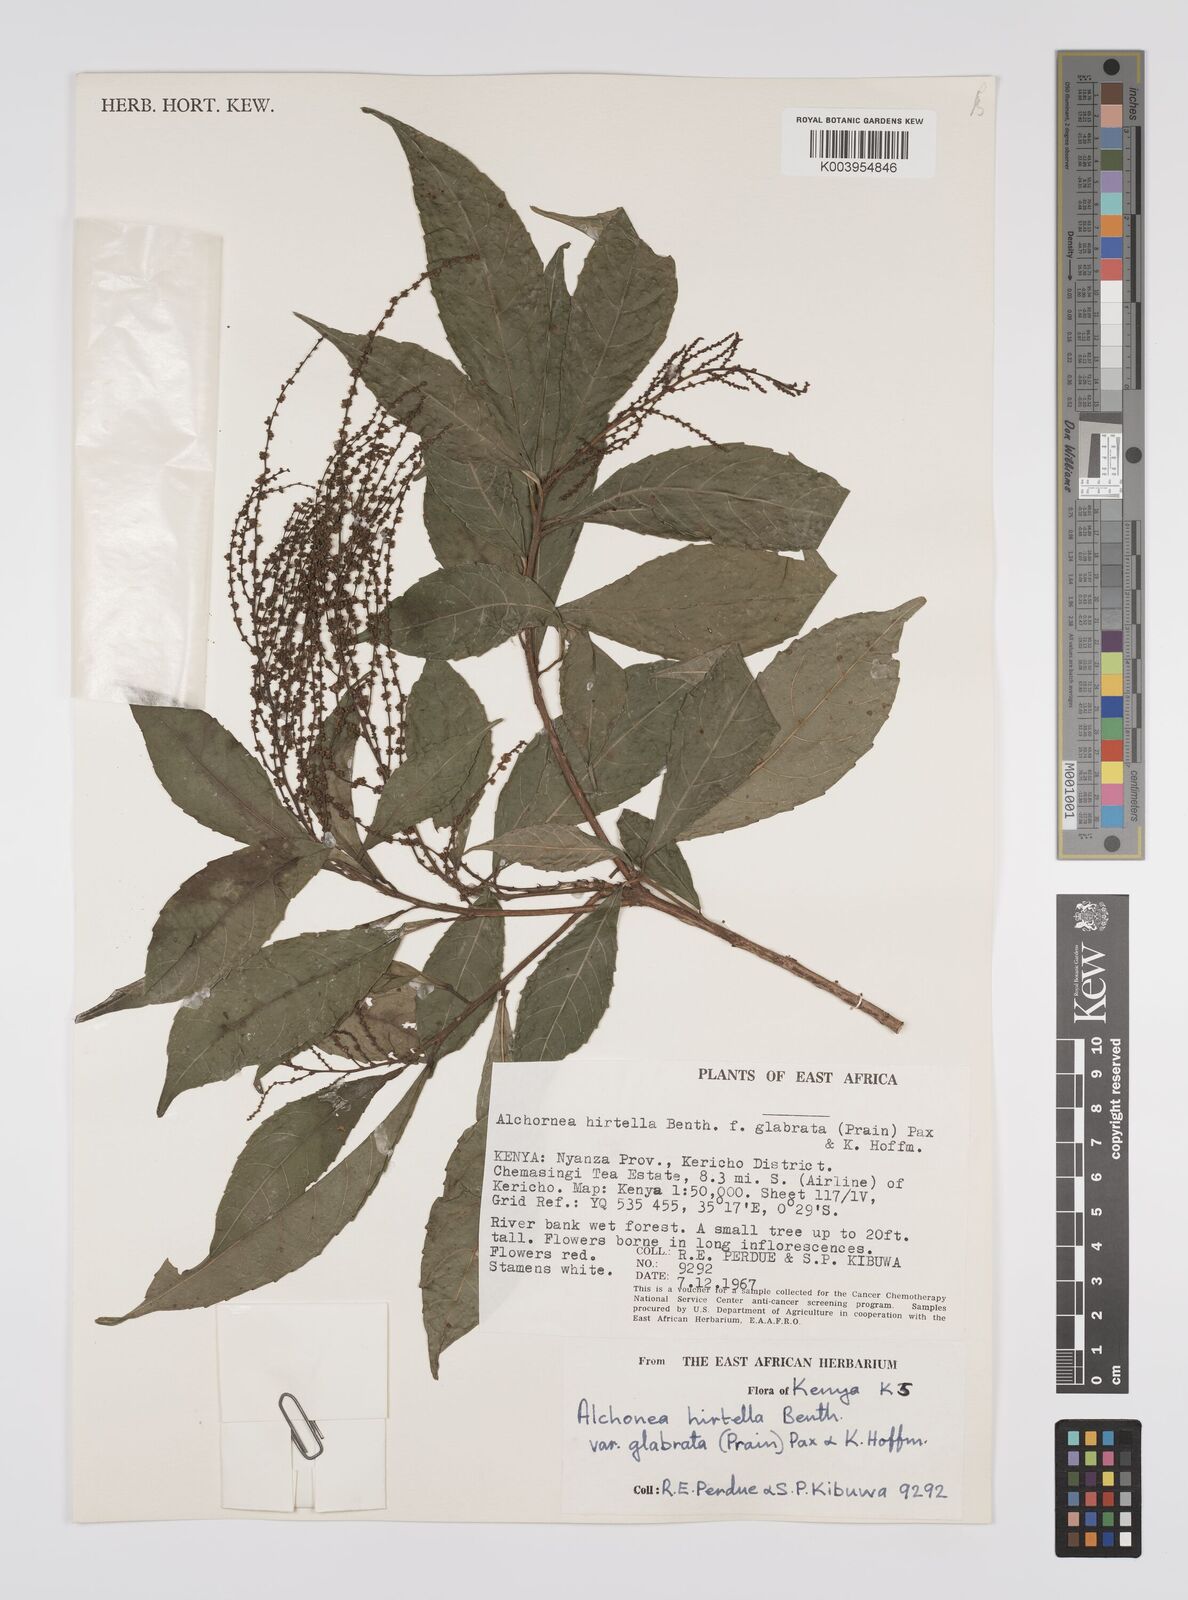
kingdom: Plantae
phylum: Tracheophyta
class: Magnoliopsida
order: Malpighiales
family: Euphorbiaceae
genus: Alchornea
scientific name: Alchornea hirtella
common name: Forest bead-string
